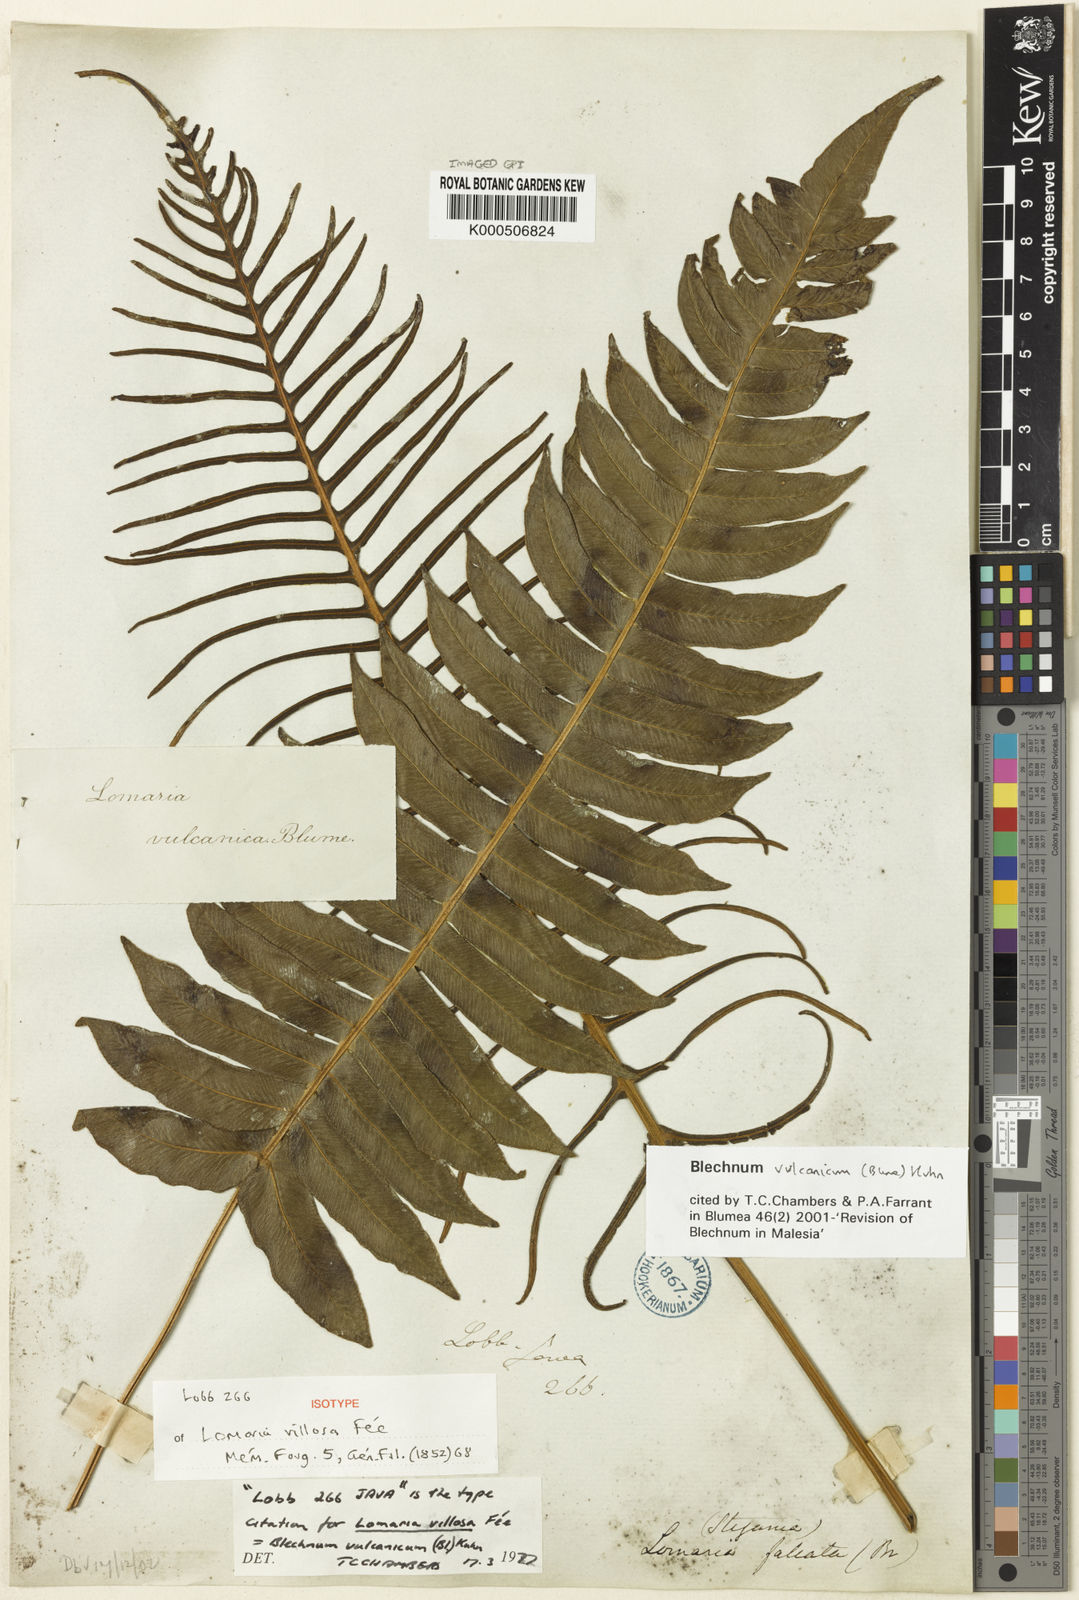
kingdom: Plantae
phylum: Tracheophyta
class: Polypodiopsida
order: Polypodiales
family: Blechnaceae
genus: Cranfillia
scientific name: Cranfillia vulcanica
